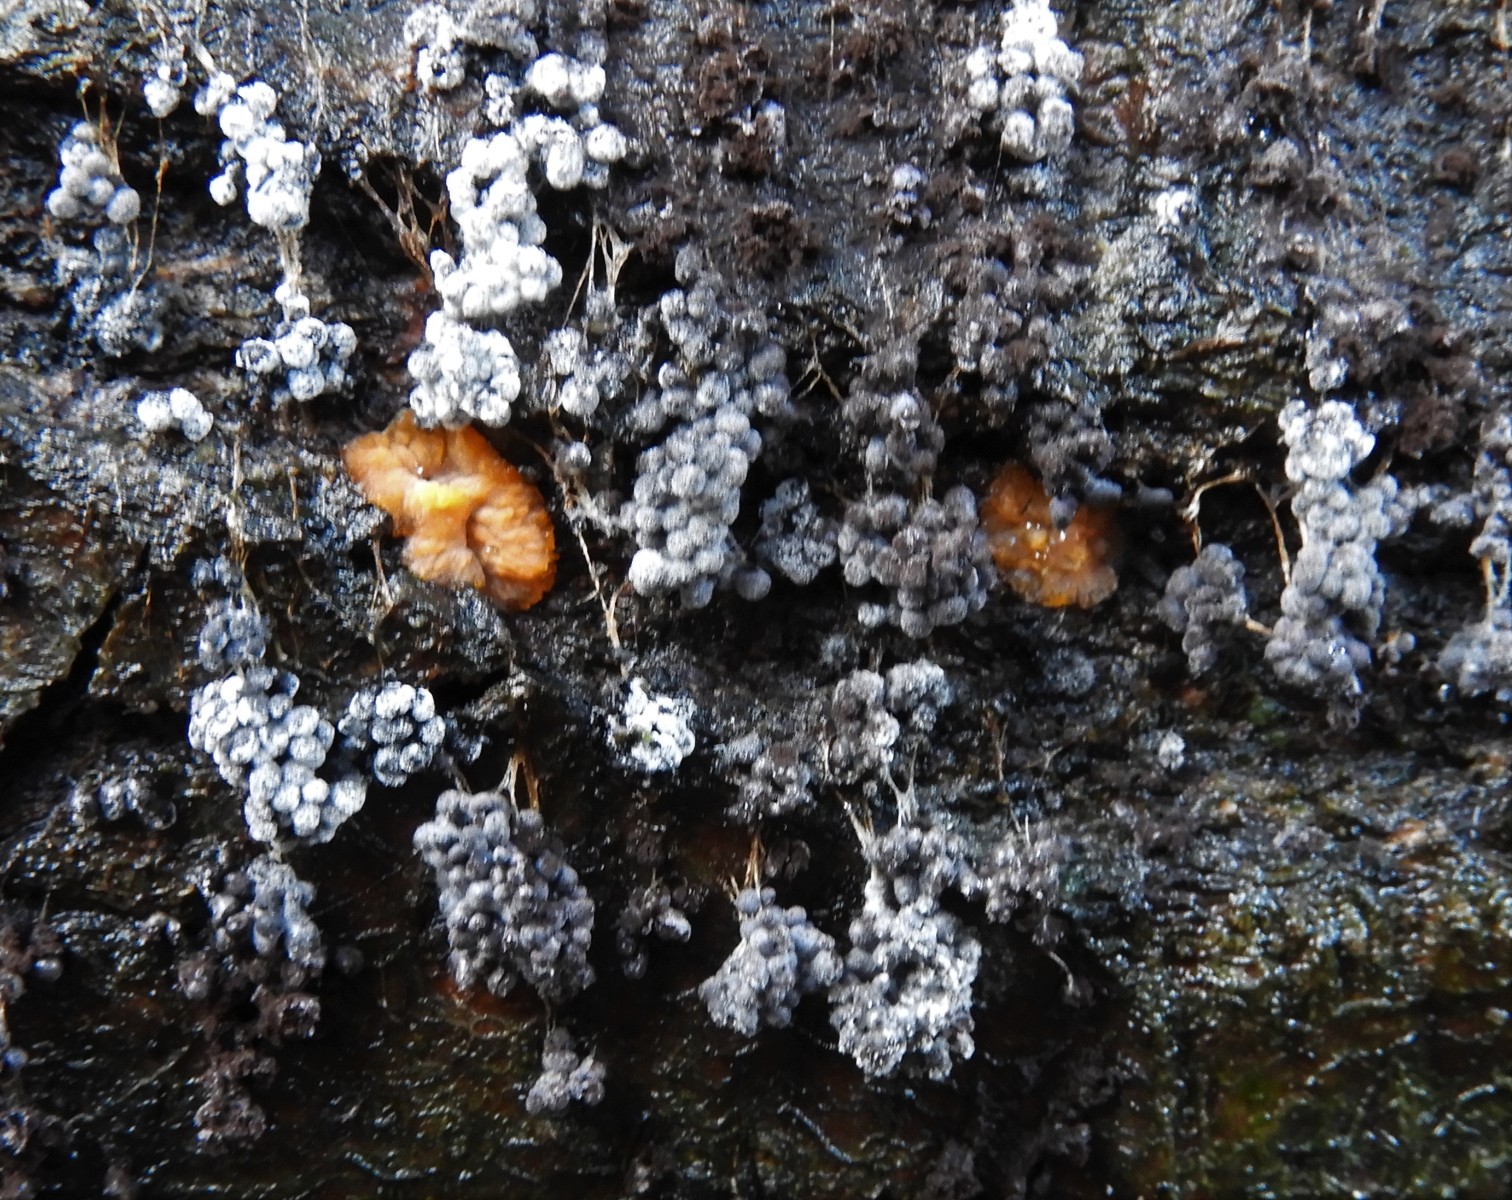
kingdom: Protozoa
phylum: Mycetozoa
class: Myxomycetes
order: Physarales
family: Physaraceae
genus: Badhamia
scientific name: Badhamia utricularis
